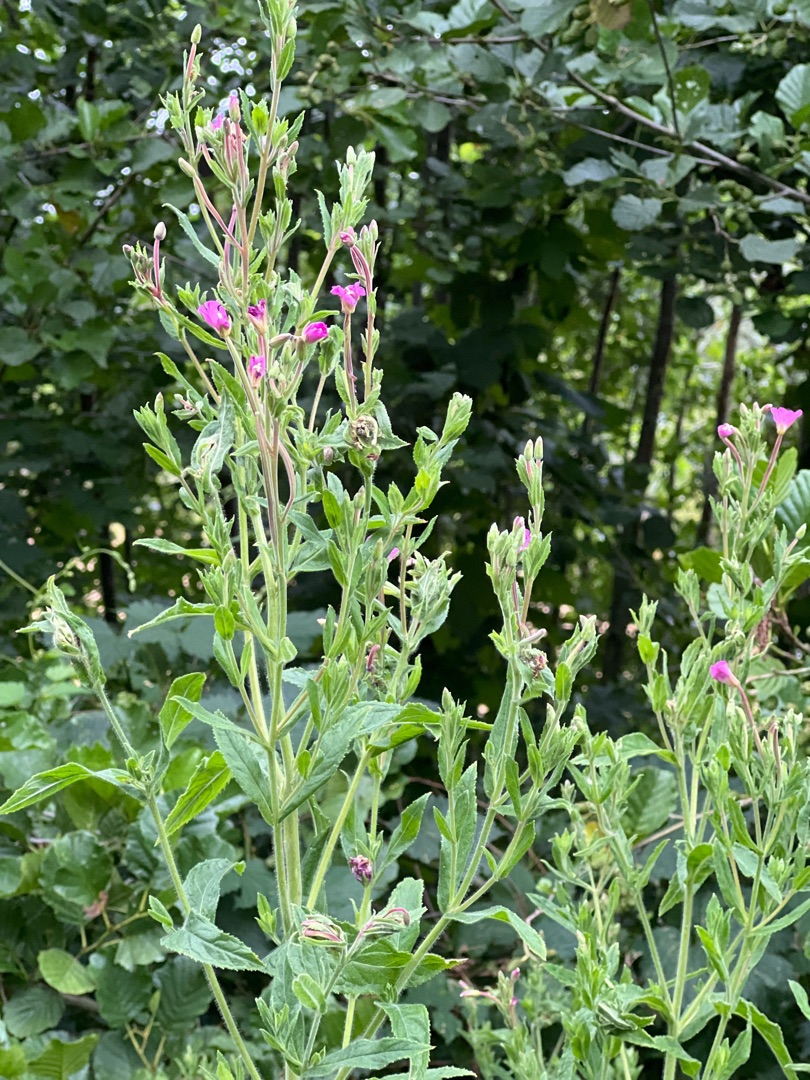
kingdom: Plantae
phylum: Tracheophyta
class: Magnoliopsida
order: Myrtales
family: Onagraceae
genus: Epilobium
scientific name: Epilobium hirsutum
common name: Lådden dueurt
